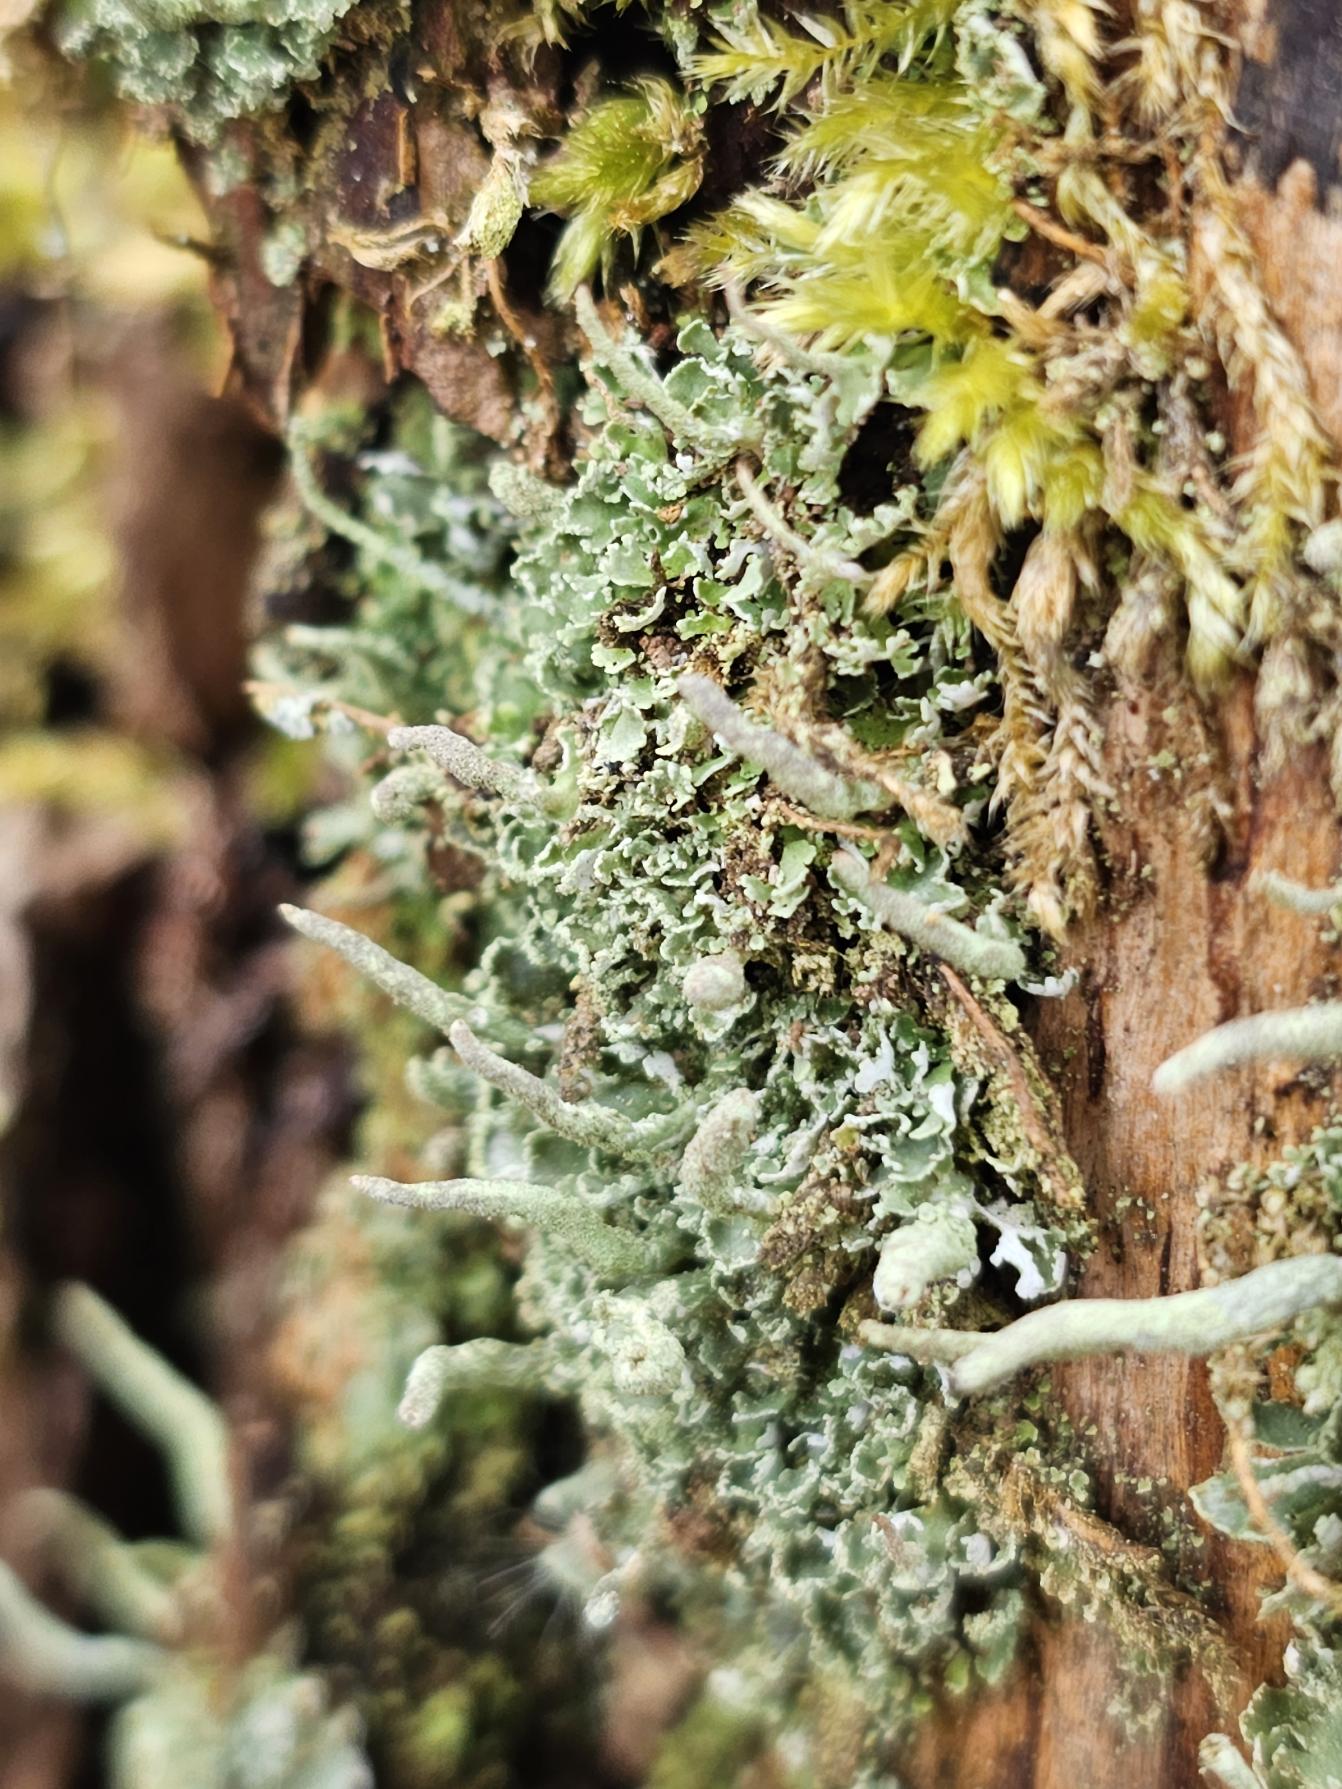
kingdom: Fungi
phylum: Ascomycota
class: Lecanoromycetes
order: Lecanorales
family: Cladoniaceae
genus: Cladonia
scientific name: Cladonia coniocraea
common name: Træfods-bægerlav
